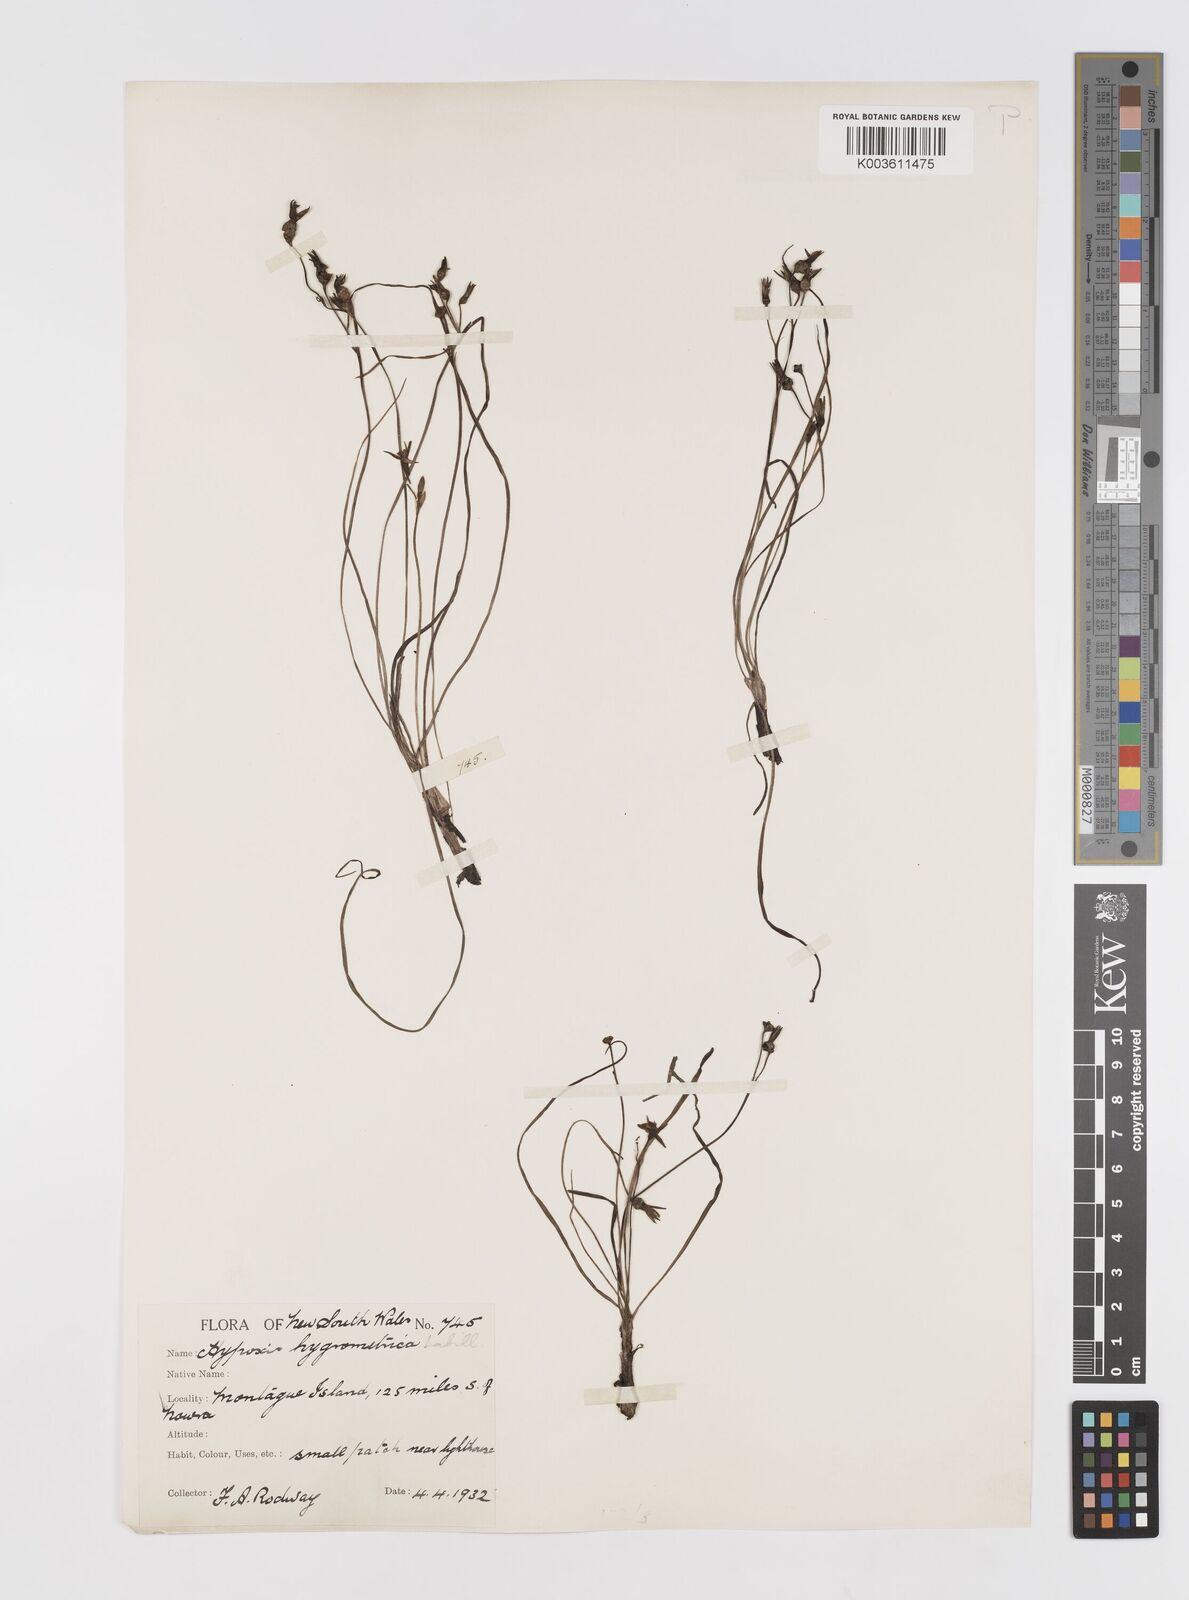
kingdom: Plantae
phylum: Tracheophyta
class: Liliopsida
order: Asparagales
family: Hypoxidaceae
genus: Hypoxis
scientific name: Hypoxis hygrometrica
